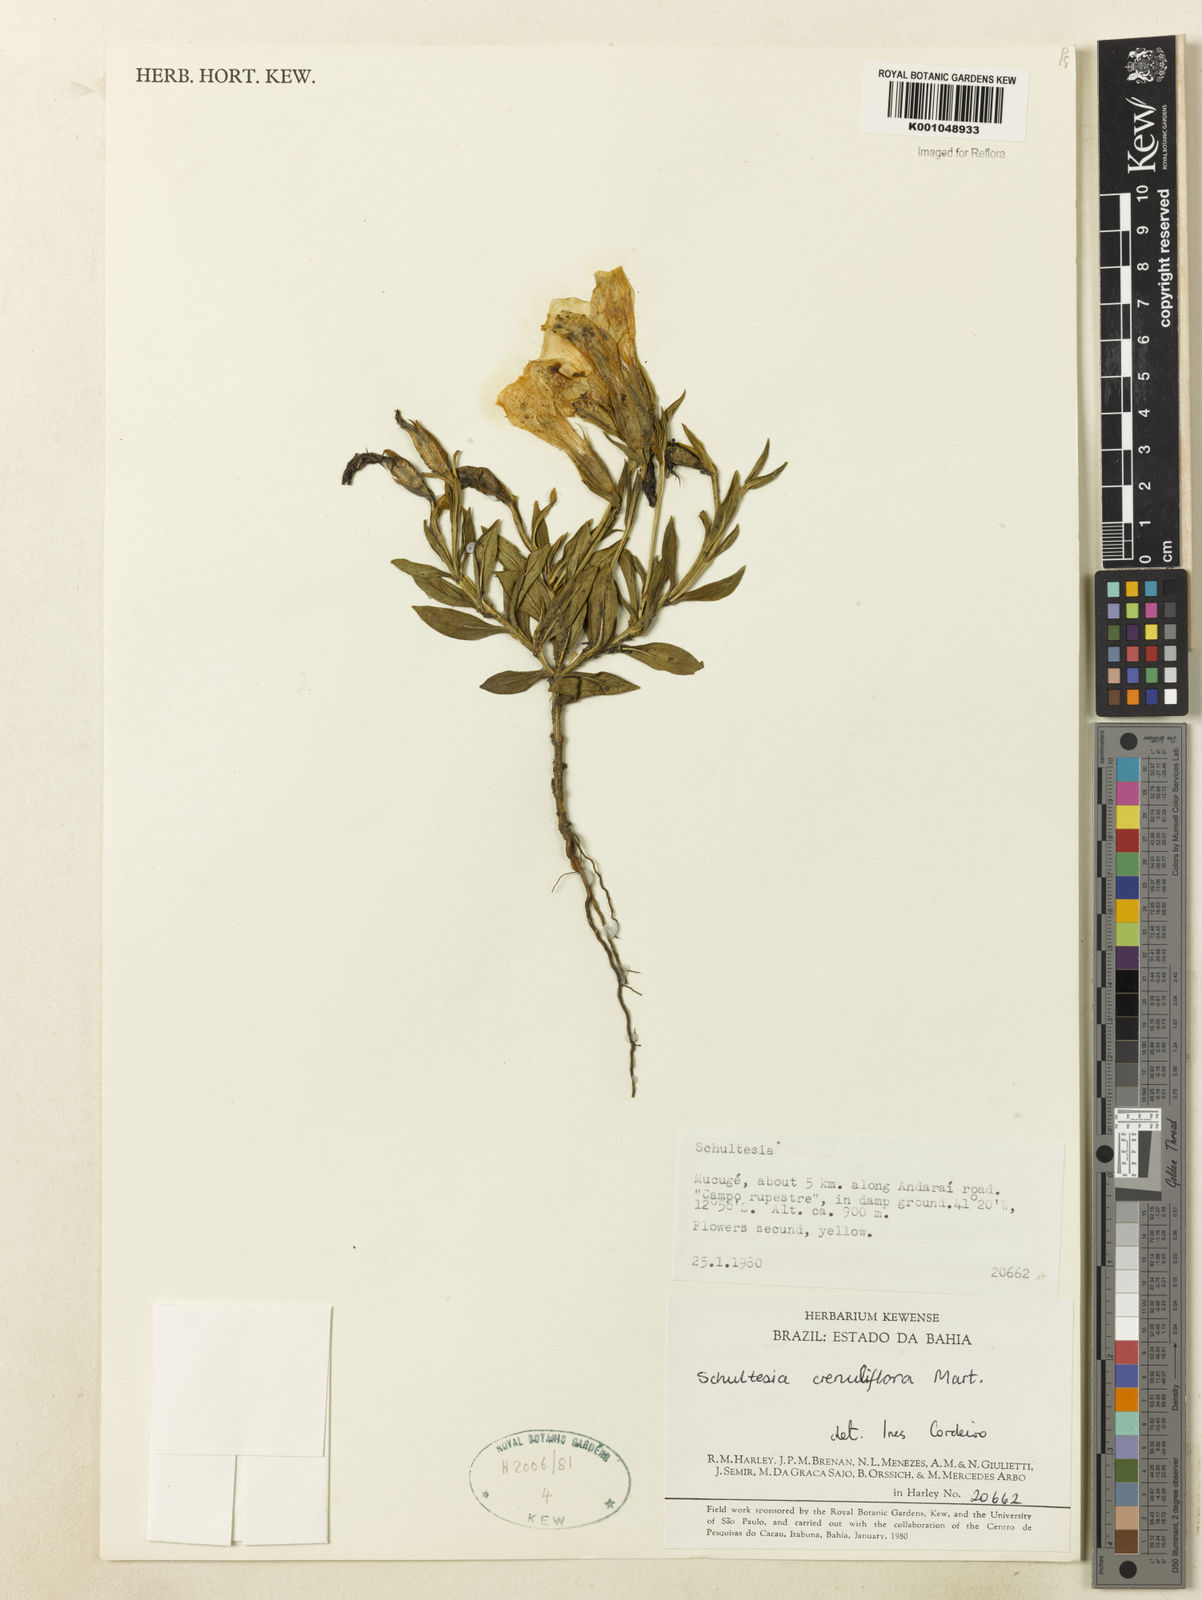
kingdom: Plantae
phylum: Tracheophyta
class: Magnoliopsida
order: Gentianales
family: Gentianaceae
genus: Schultesia
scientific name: Schultesia crenuliflora
